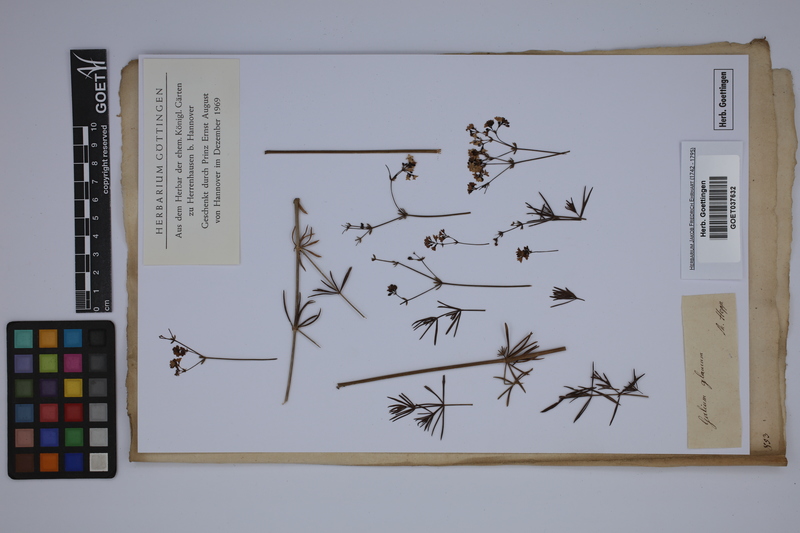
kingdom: Plantae
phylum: Tracheophyta
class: Magnoliopsida
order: Gentianales
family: Rubiaceae
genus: Galium
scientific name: Galium glaucum
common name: Waxy bedstraw
